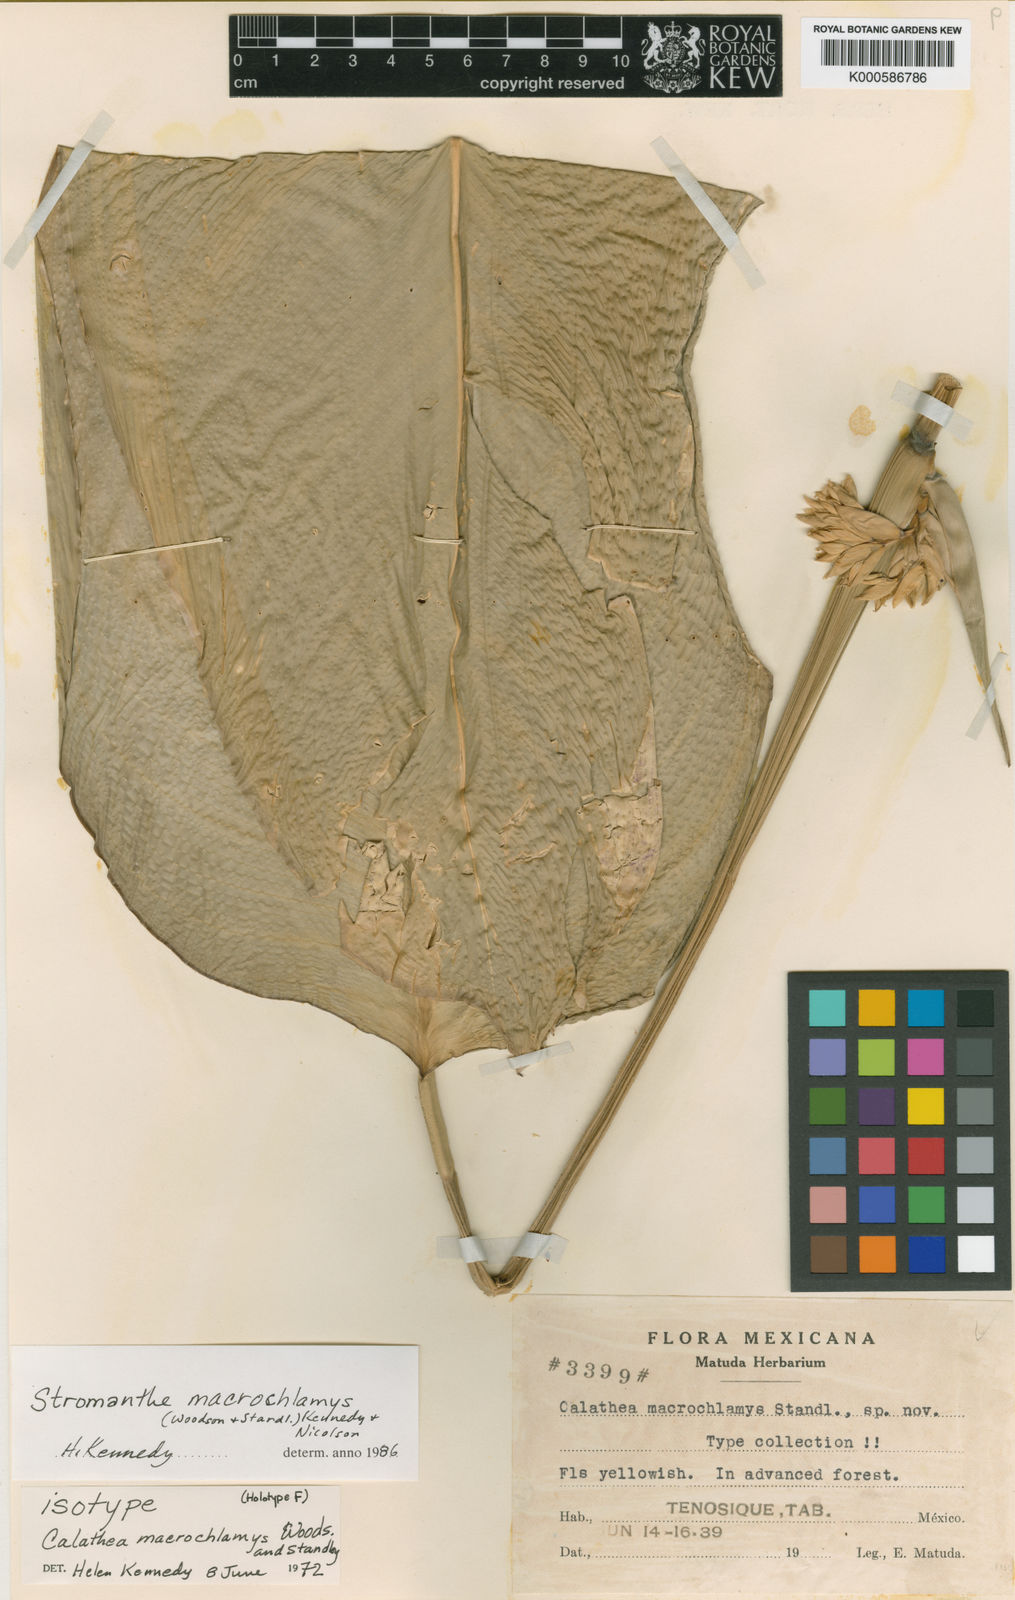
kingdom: Plantae
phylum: Tracheophyta
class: Liliopsida
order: Zingiberales
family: Marantaceae
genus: Stromanthe
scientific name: Stromanthe macrochlamys
